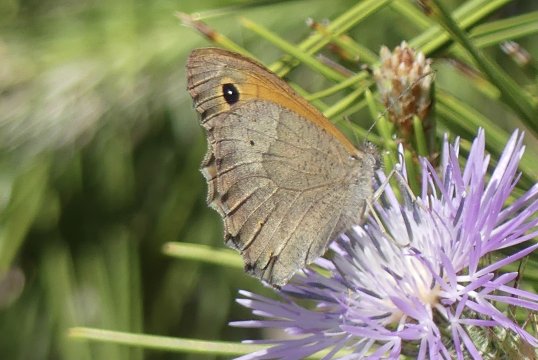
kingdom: Animalia
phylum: Arthropoda
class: Insecta
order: Lepidoptera
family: Nymphalidae
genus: Maniola
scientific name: Maniola jurtina
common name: Meadow Brown
